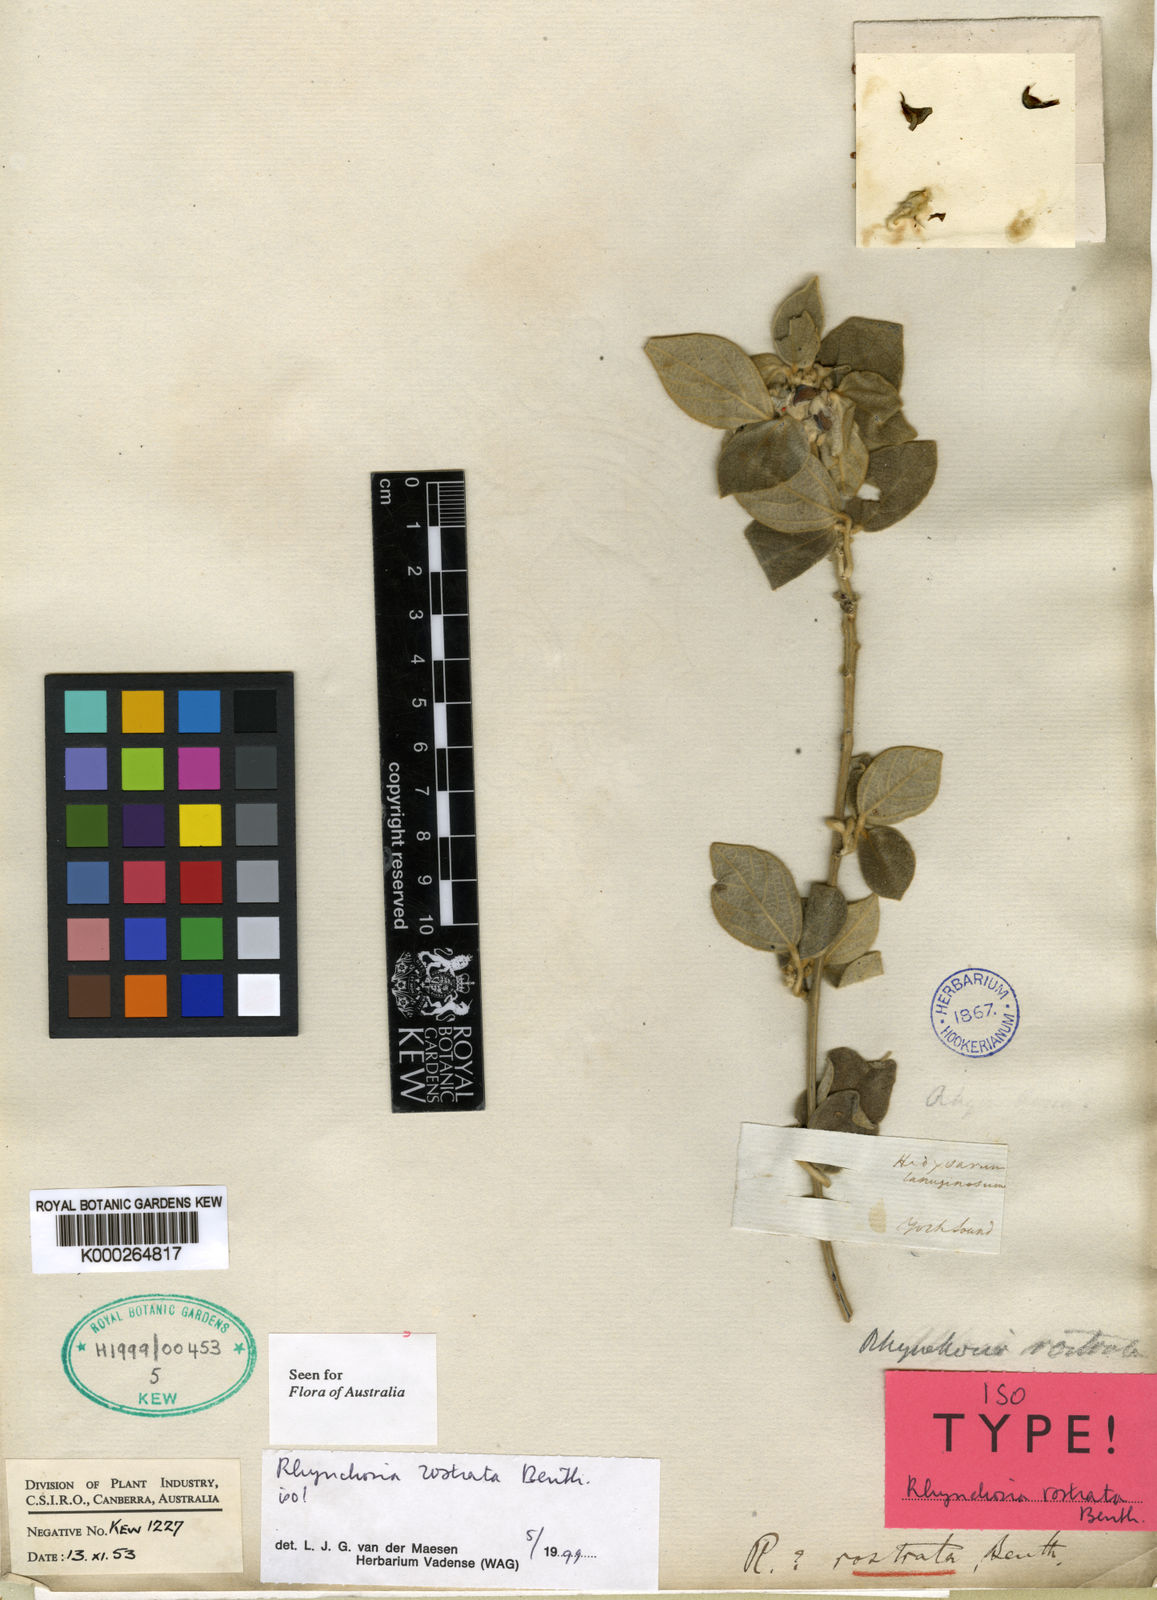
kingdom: Plantae
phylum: Tracheophyta
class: Magnoliopsida
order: Fabales
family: Fabaceae
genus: Rhynchosia
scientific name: Rhynchosia rostrata
